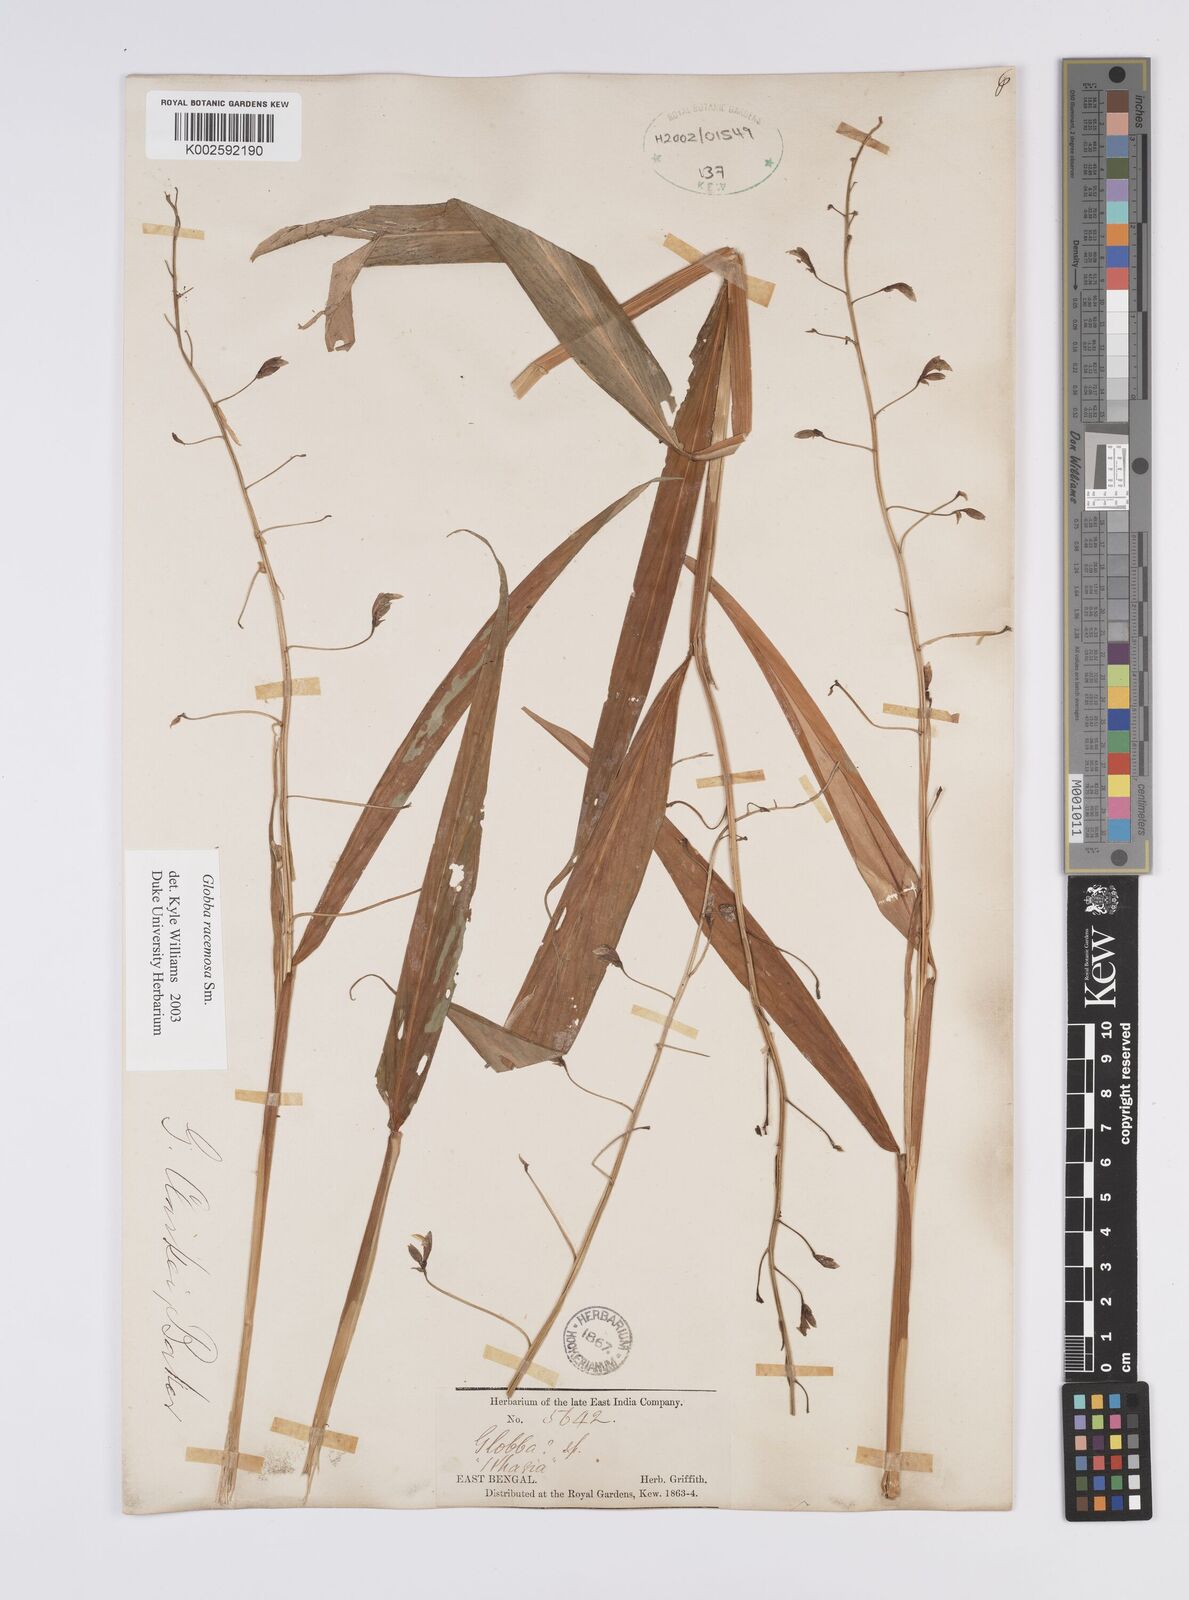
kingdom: Plantae
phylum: Tracheophyta
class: Liliopsida
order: Zingiberales
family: Zingiberaceae
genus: Globba
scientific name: Globba racemosa
